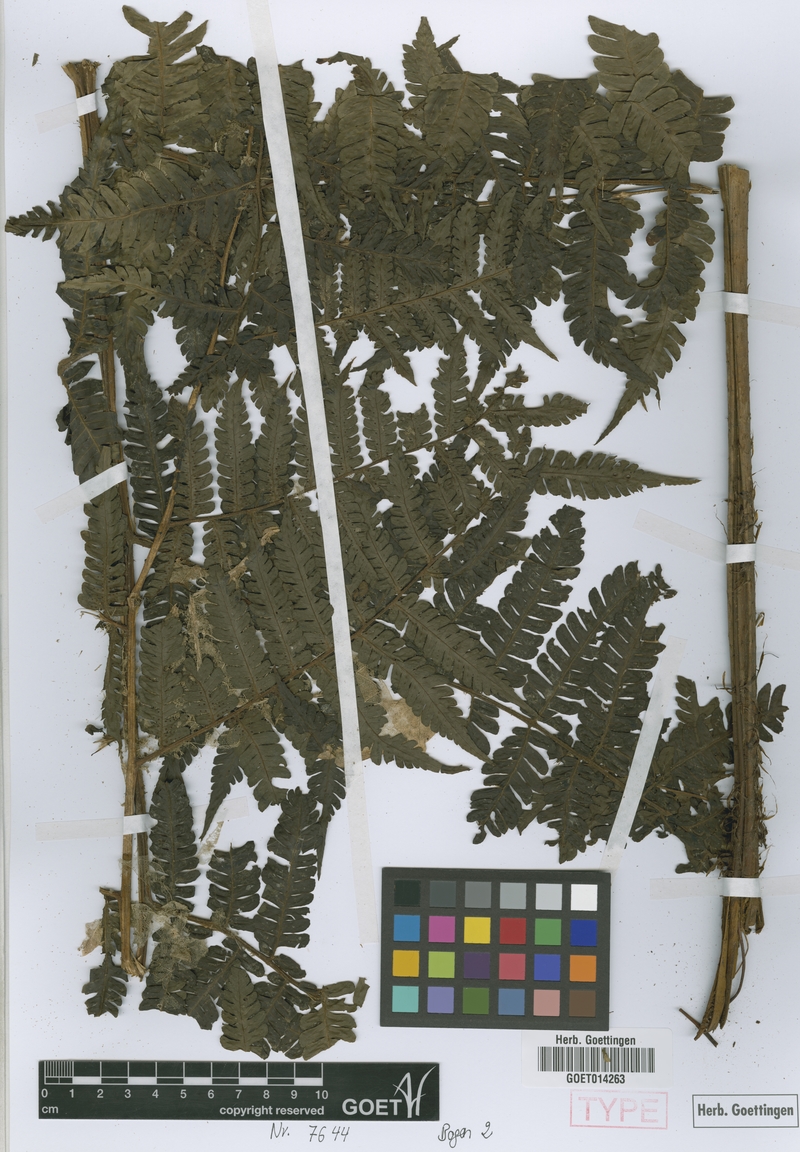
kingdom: Plantae
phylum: Tracheophyta
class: Polypodiopsida
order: Polypodiales
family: Dryopteridaceae
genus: Megalastrum
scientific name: Megalastrum aureisquama
